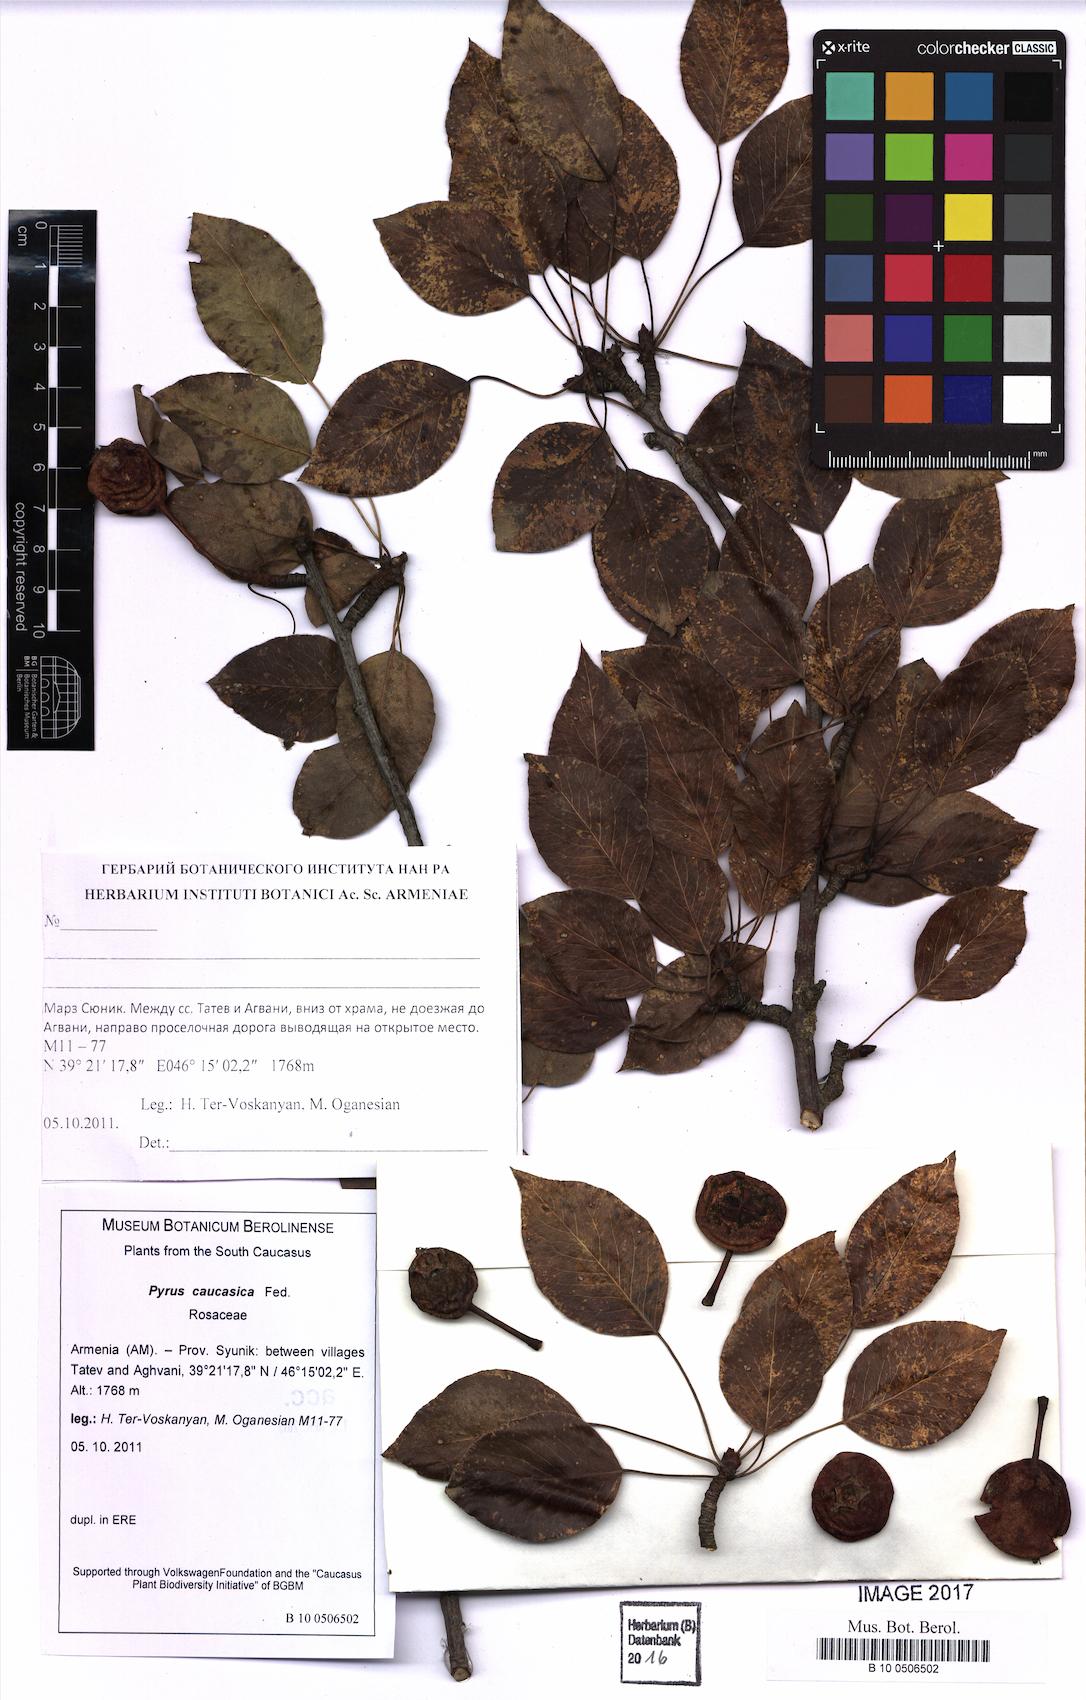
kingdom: Plantae
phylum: Tracheophyta
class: Magnoliopsida
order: Rosales
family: Rosaceae
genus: Pyrus
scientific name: Pyrus communis
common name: Pear
